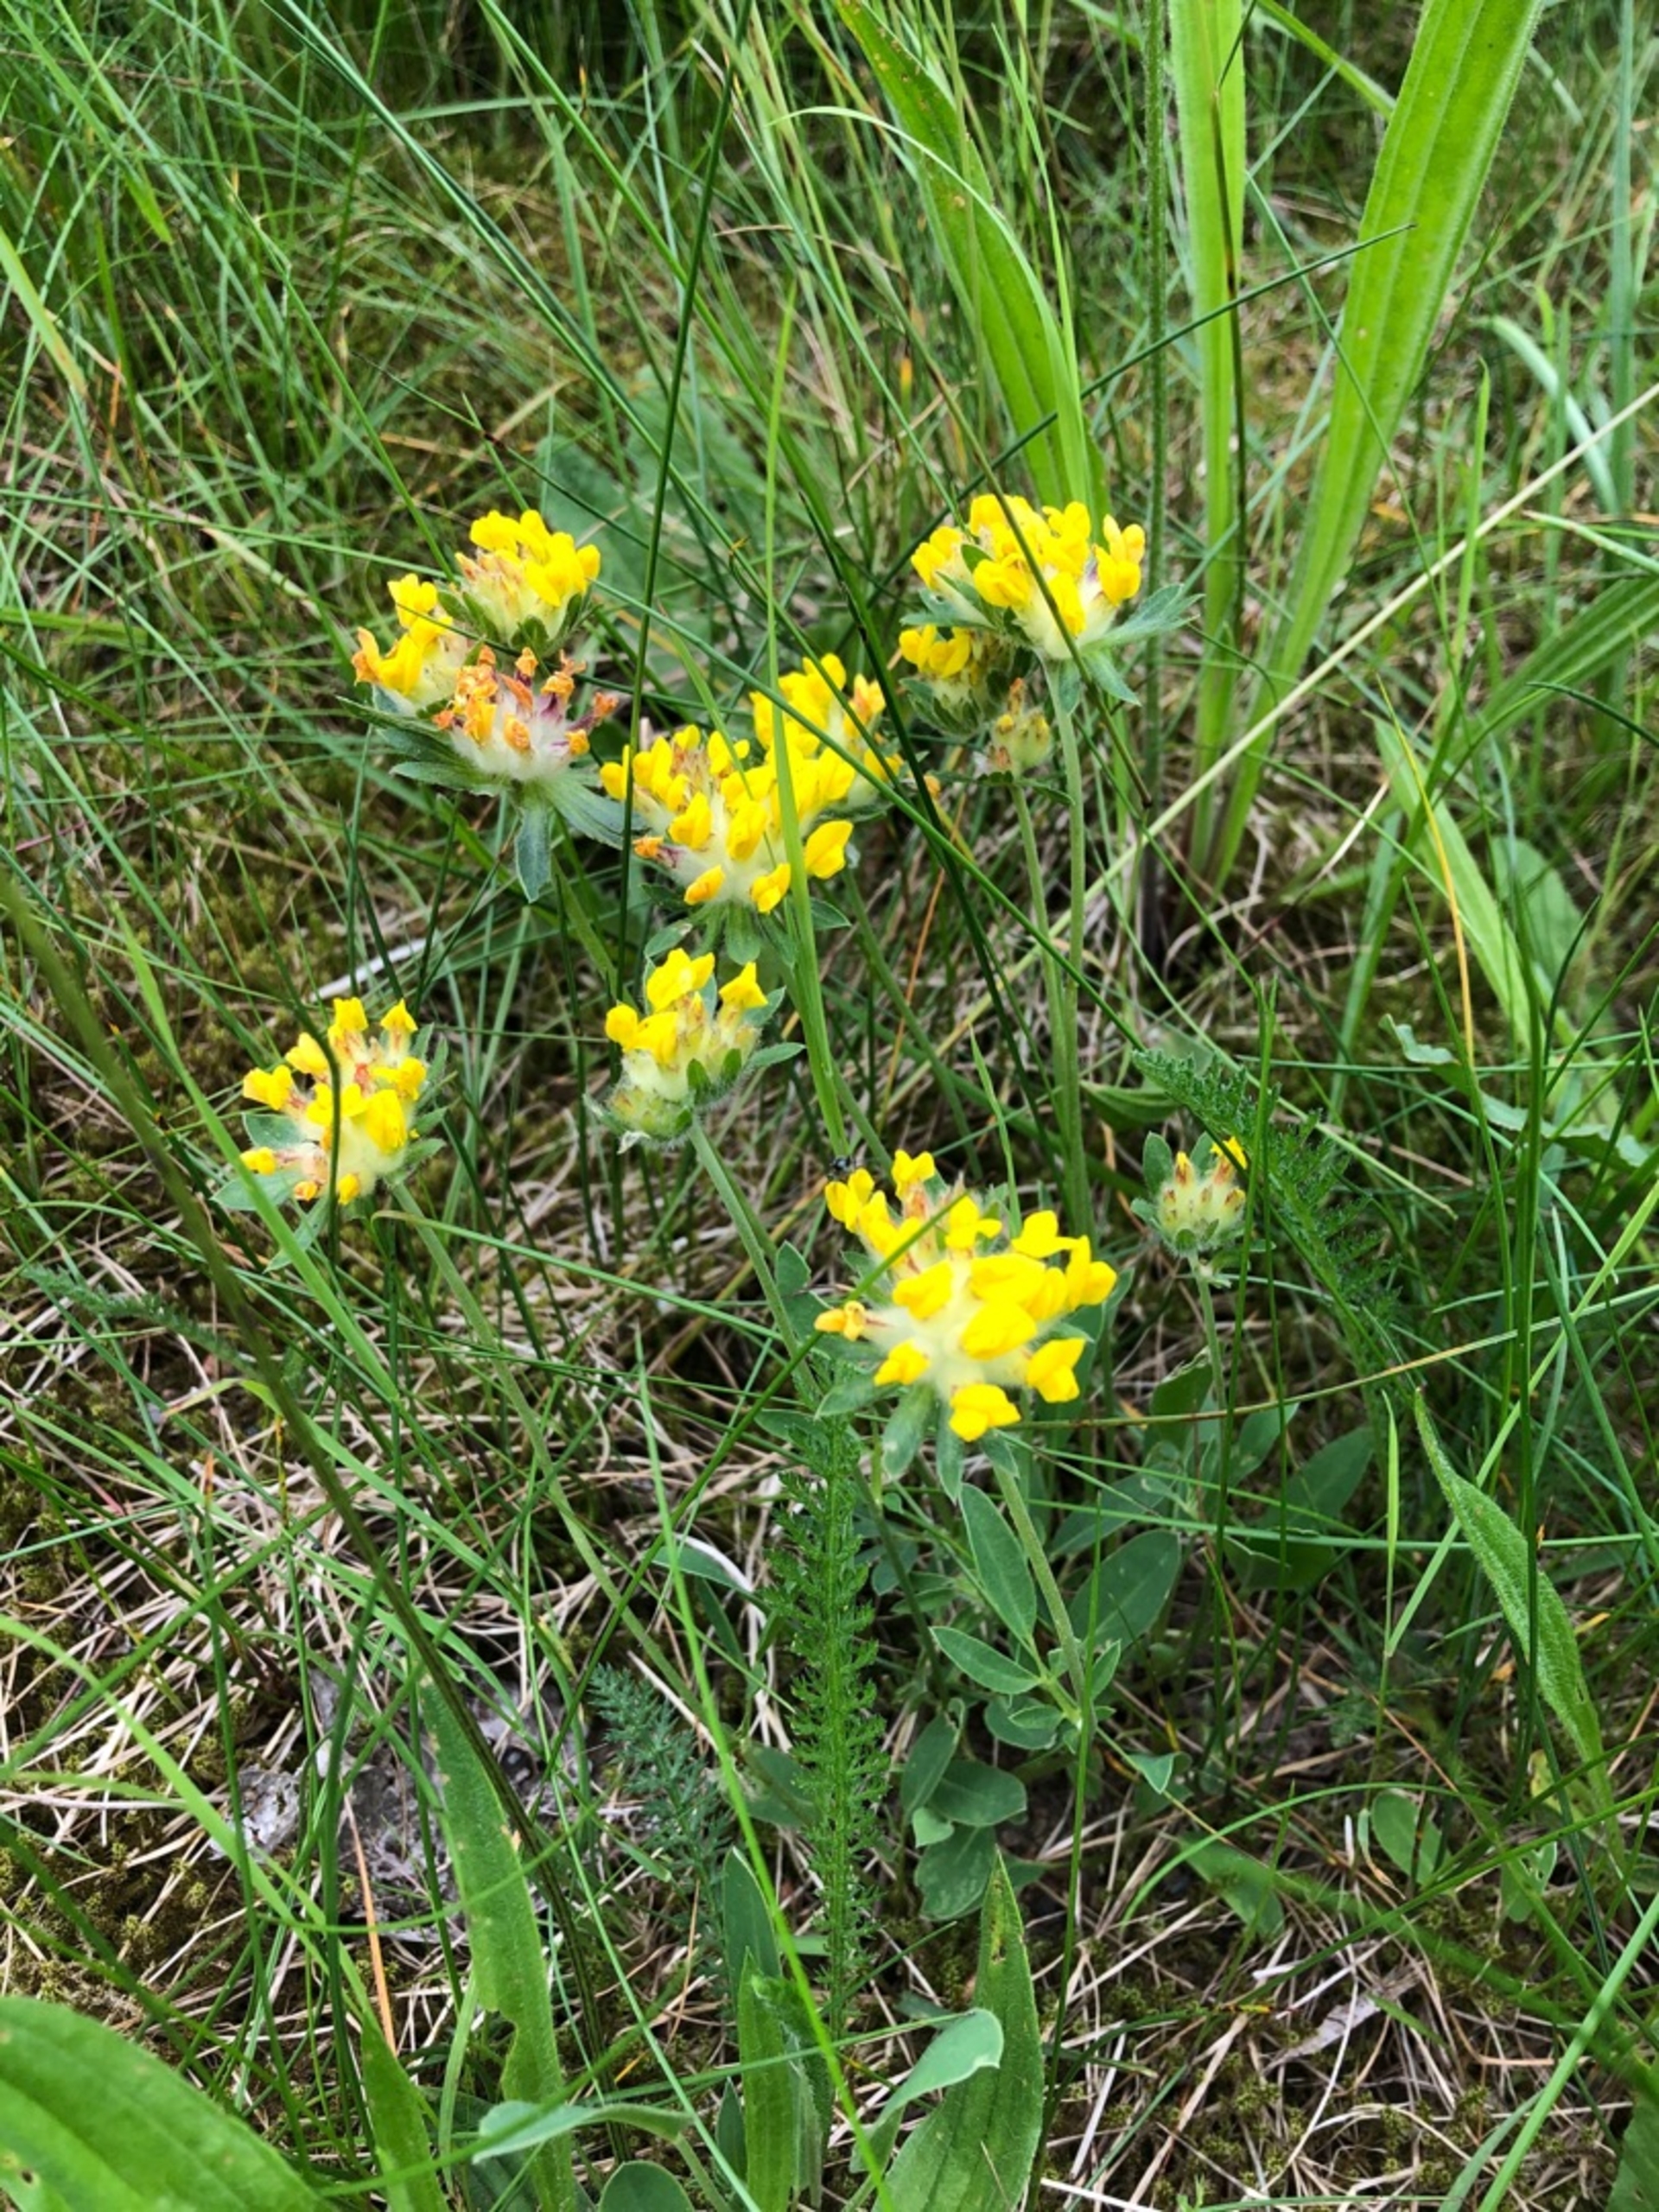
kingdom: Plantae
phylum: Tracheophyta
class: Magnoliopsida
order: Fabales
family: Fabaceae
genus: Anthyllis
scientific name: Anthyllis vulneraria
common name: Rundbælg
